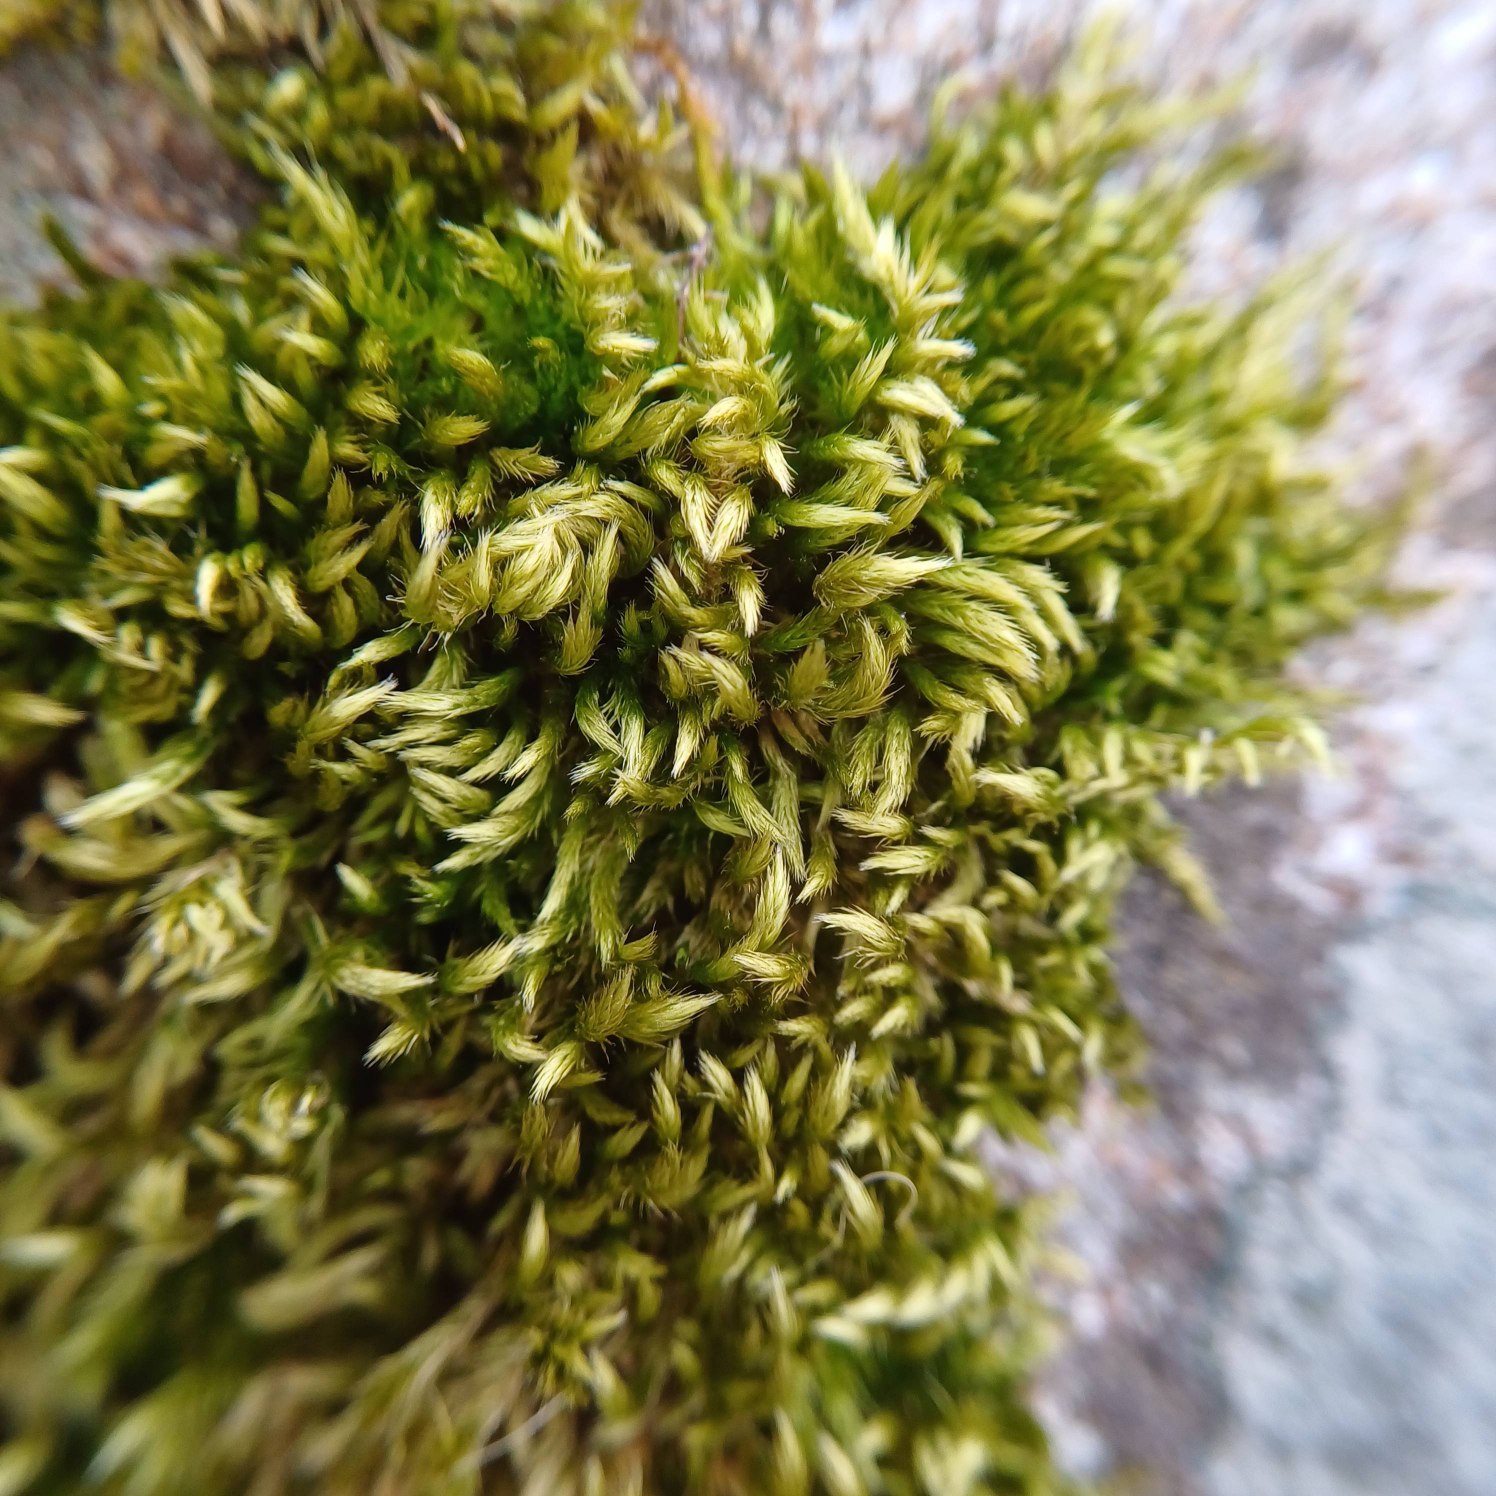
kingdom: Plantae
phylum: Bryophyta
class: Bryopsida
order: Hypnales
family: Brachytheciaceae
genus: Homalothecium
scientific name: Homalothecium sericeum
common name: Krybende silkemos
